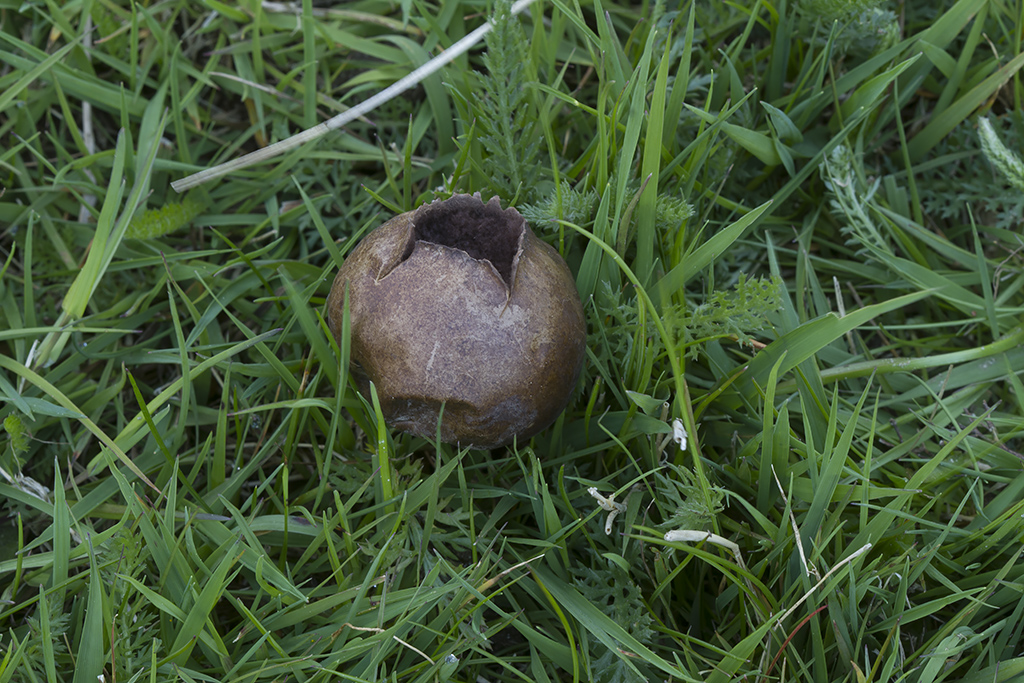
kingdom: Fungi
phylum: Basidiomycota
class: Agaricomycetes
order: Agaricales
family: Lycoperdaceae
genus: Bovista
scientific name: Bovista nigrescens
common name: sortagtig bovist
